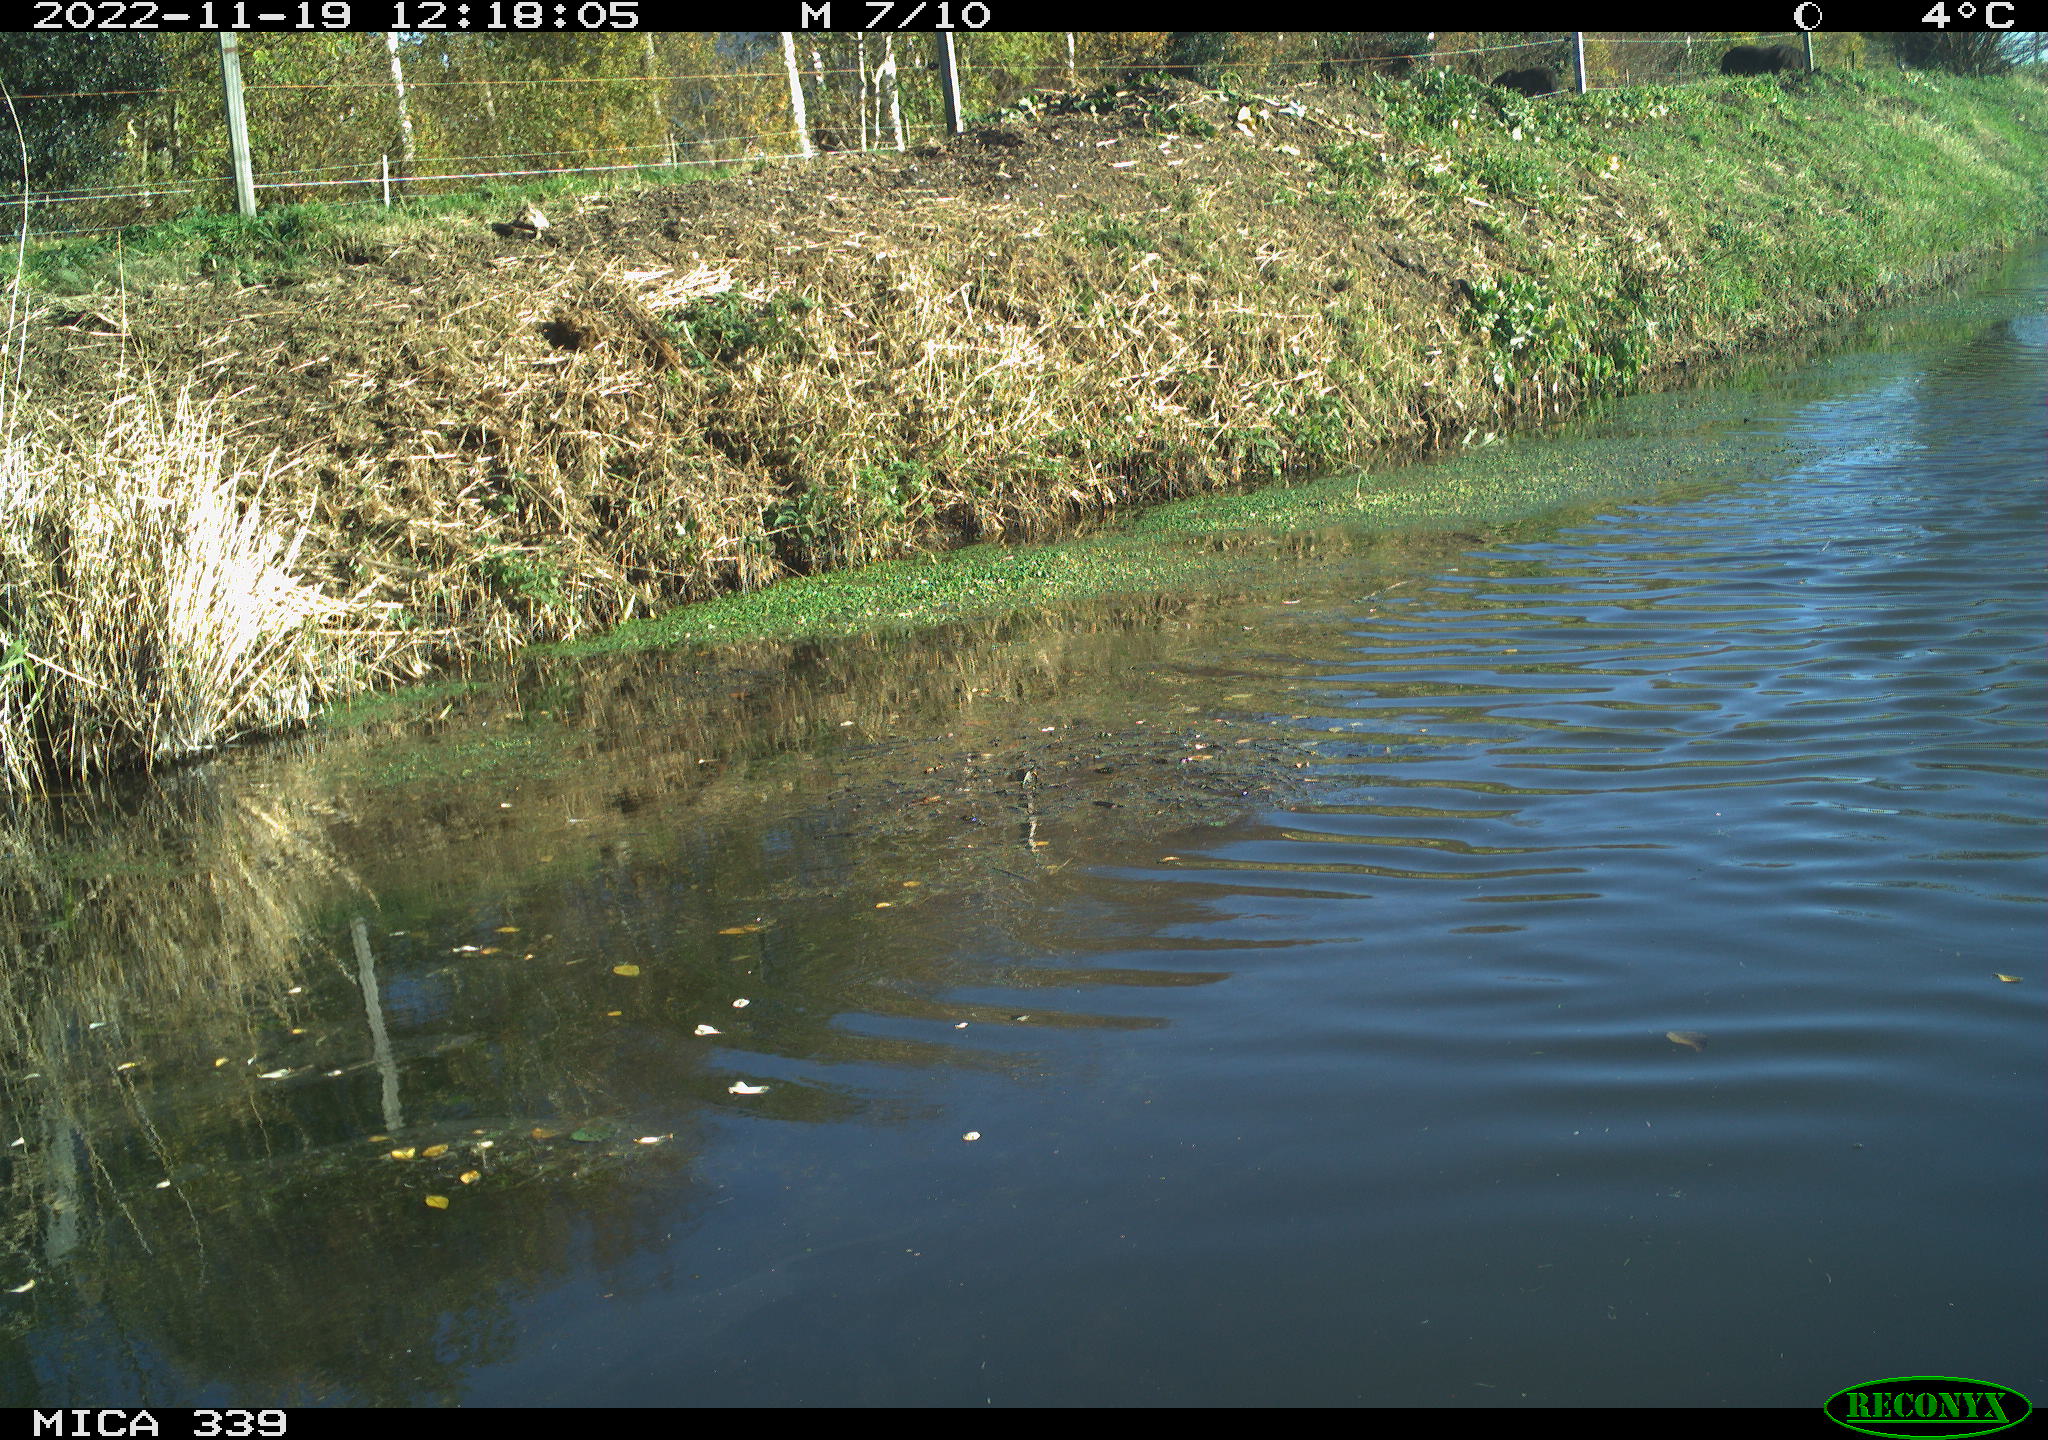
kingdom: Animalia
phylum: Chordata
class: Aves
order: Pelecaniformes
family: Ardeidae
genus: Ardea
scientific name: Ardea alba
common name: Great egret
